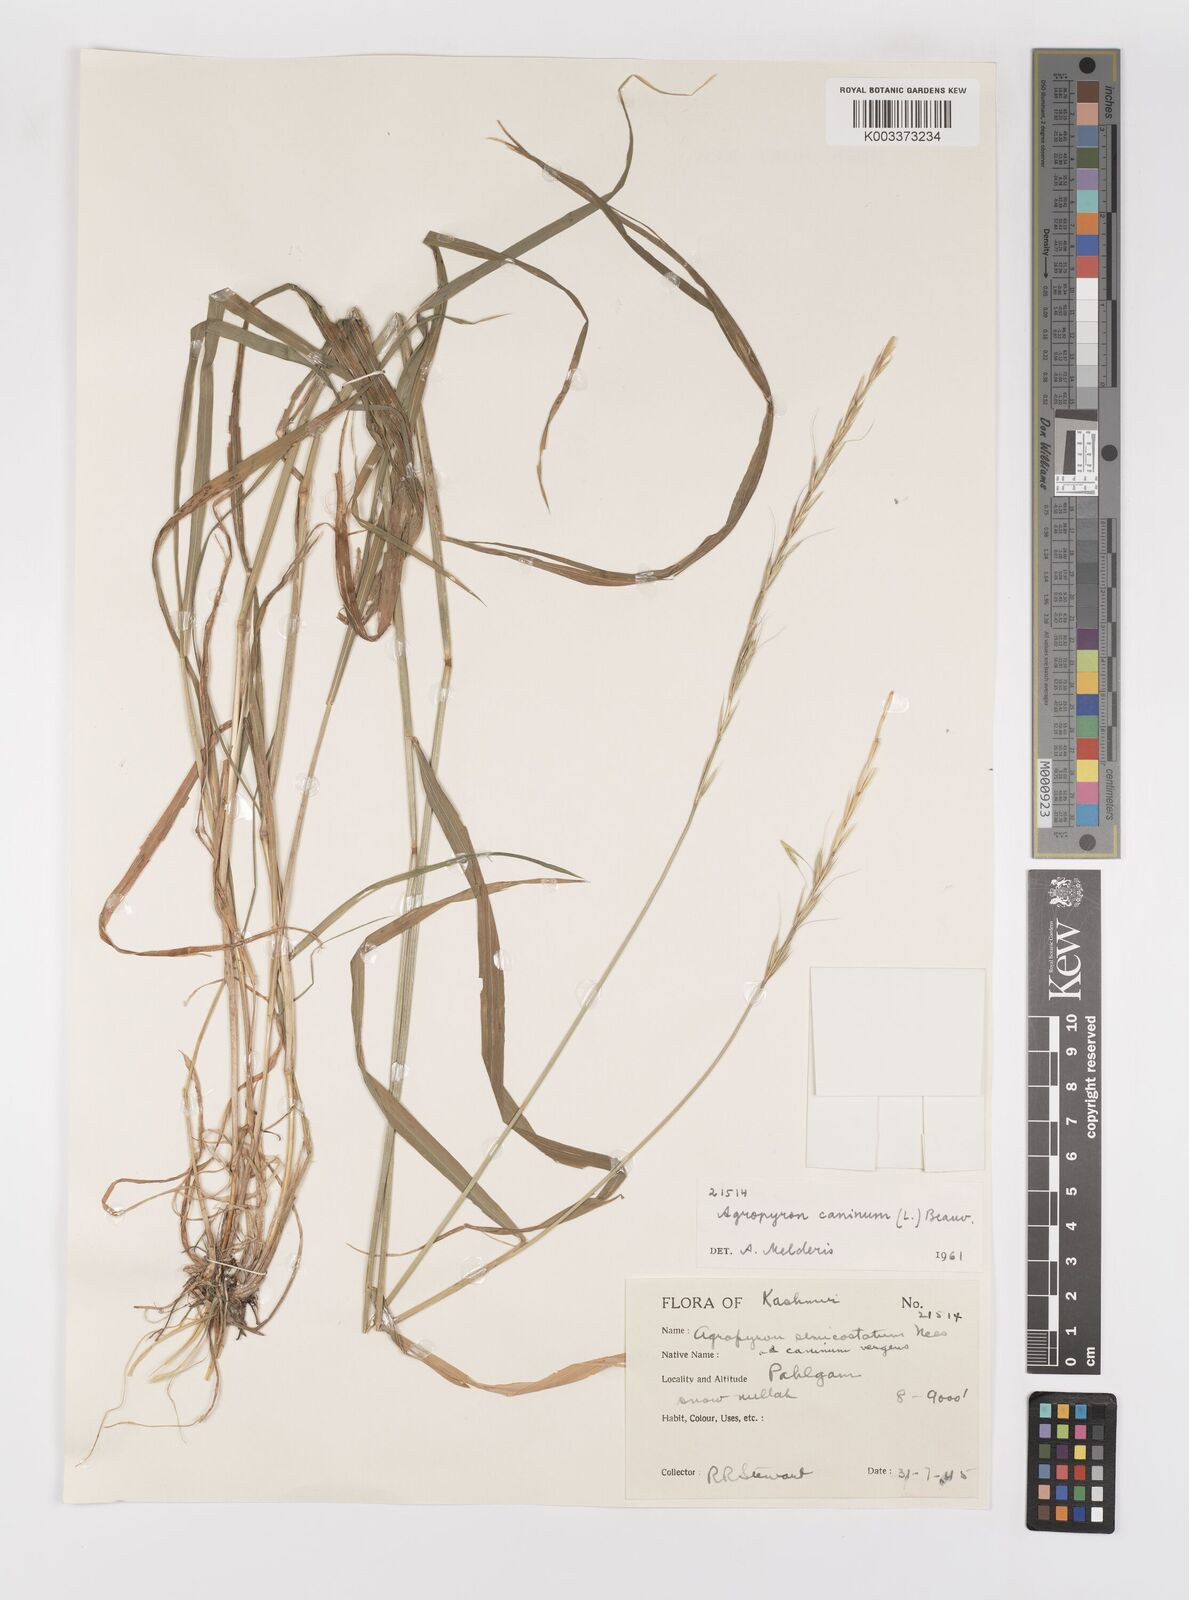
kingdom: Plantae
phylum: Tracheophyta
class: Liliopsida
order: Poales
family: Poaceae
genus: Elymus
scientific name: Elymus caninus
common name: Bearded couch
